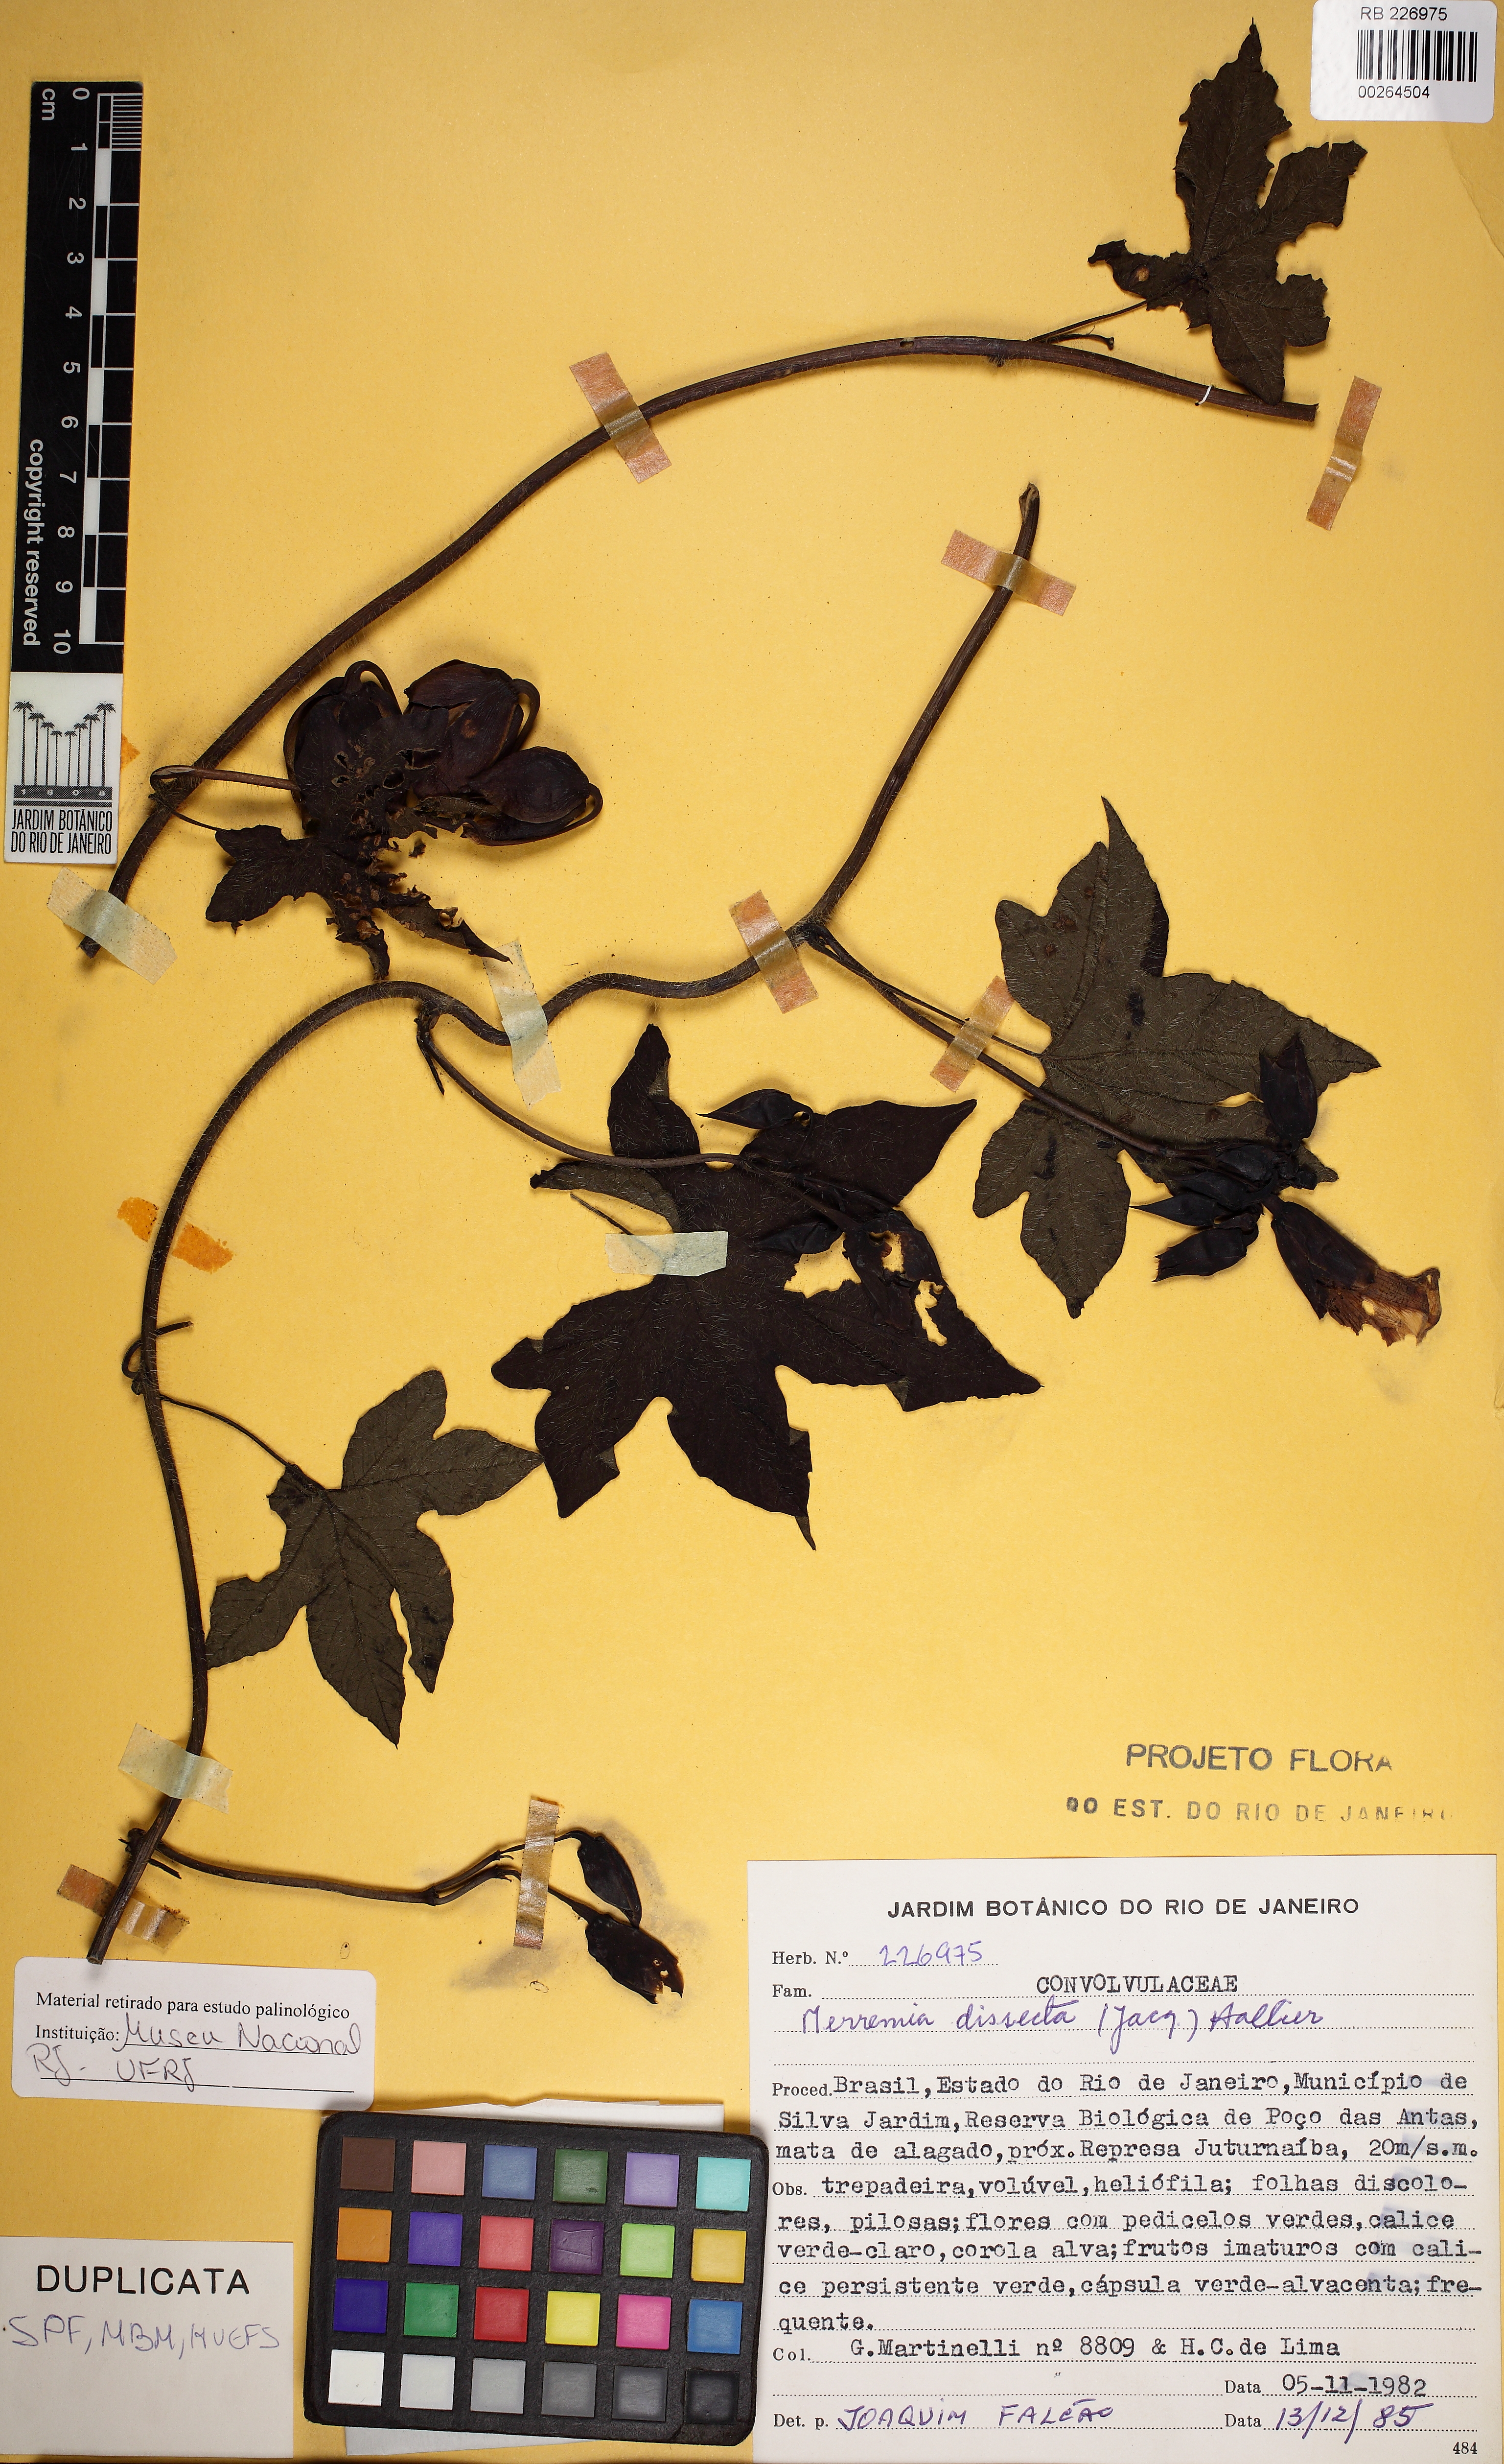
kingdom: Plantae
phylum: Tracheophyta
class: Magnoliopsida
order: Solanales
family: Convolvulaceae
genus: Distimake
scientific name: Distimake dissectus
